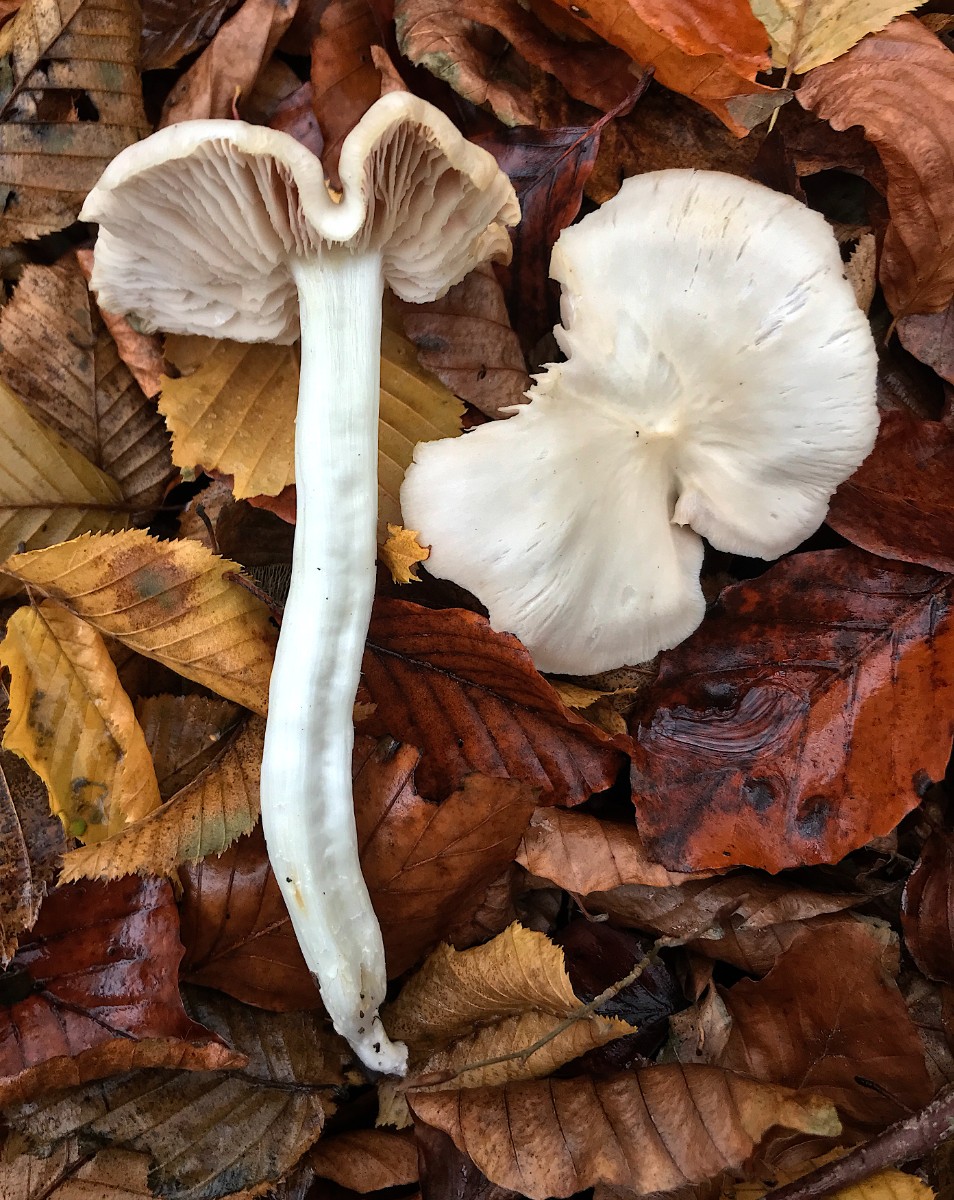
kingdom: Fungi
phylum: Basidiomycota
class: Agaricomycetes
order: Agaricales
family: Entolomataceae
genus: Entoloma
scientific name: Entoloma rhodopolium
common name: skov-rødblad
